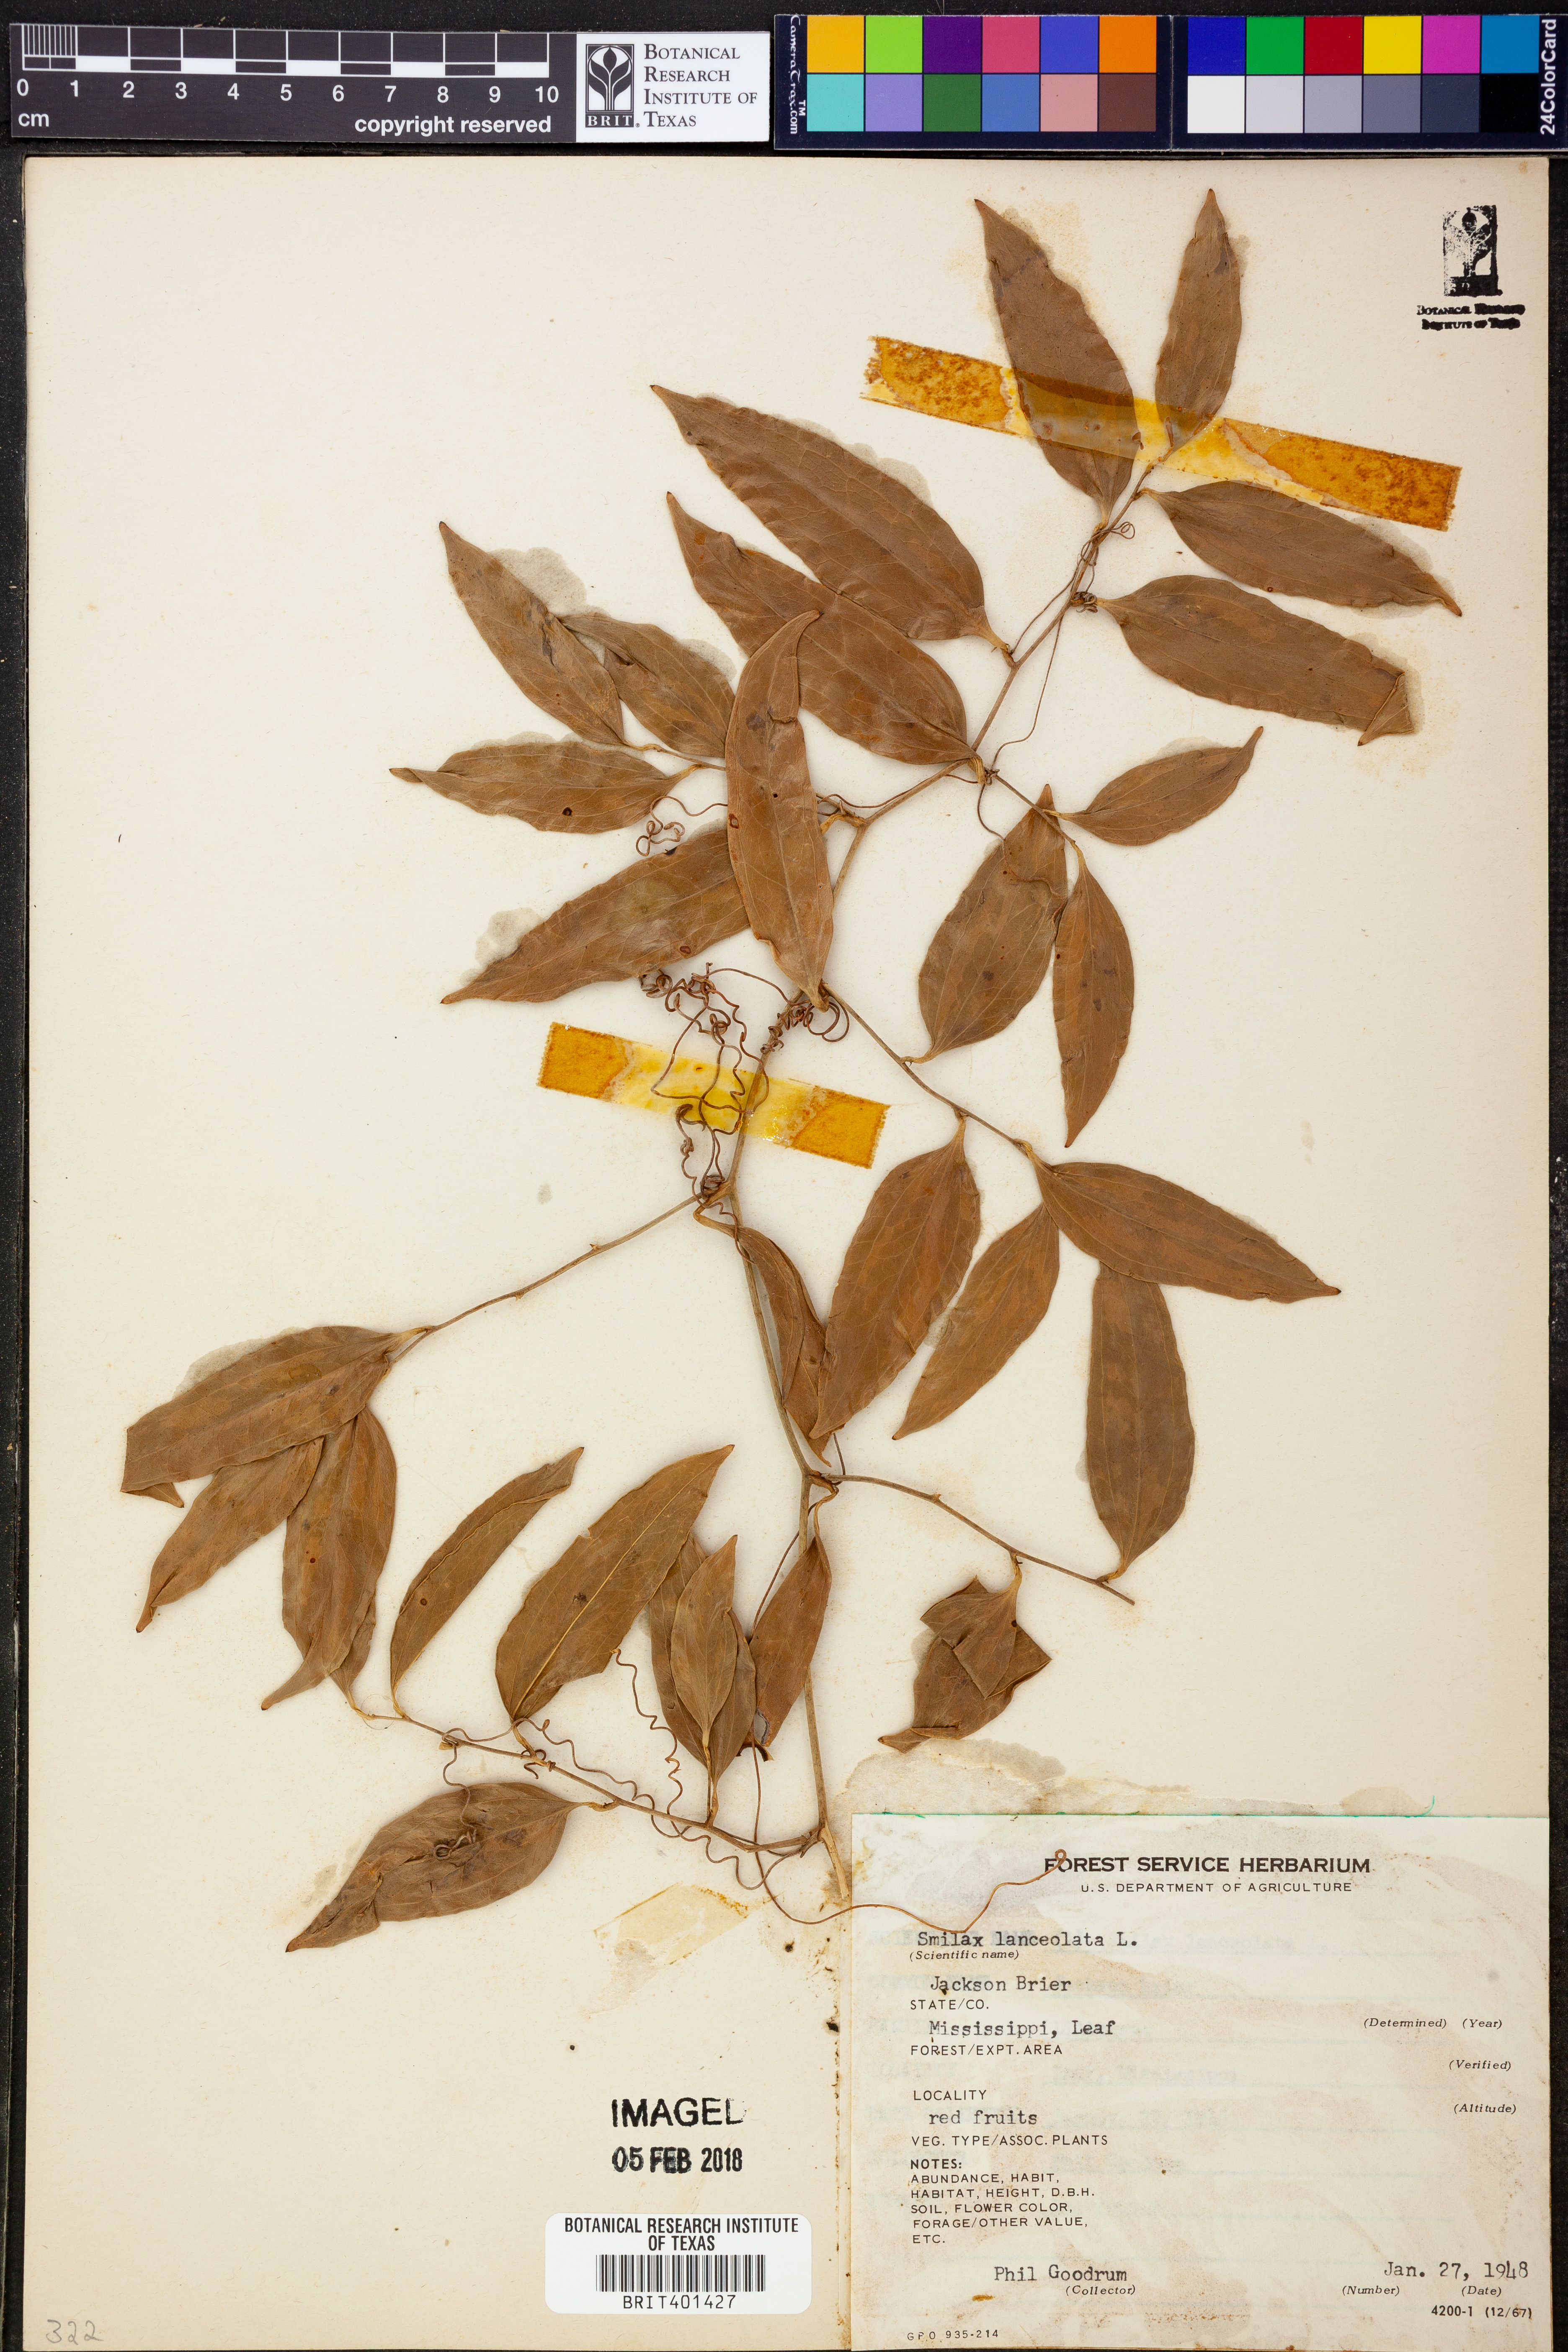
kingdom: Plantae
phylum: Tracheophyta
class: Liliopsida
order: Liliales
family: Smilacaceae
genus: Smilax
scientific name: Smilax laurifolia
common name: Bamboovine
